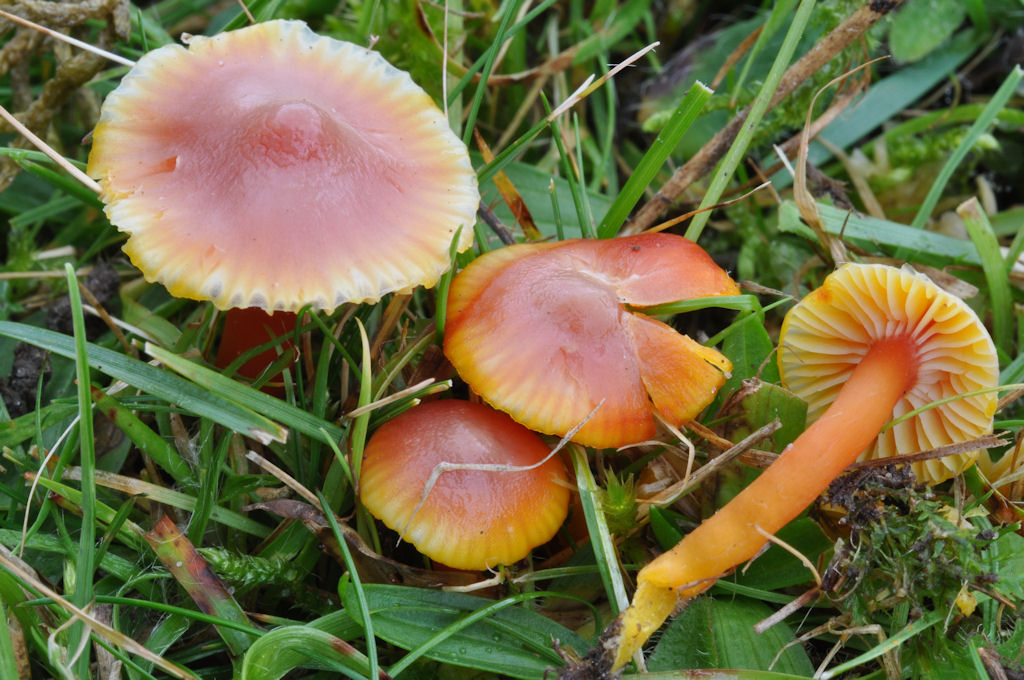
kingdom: Fungi
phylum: Basidiomycota
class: Agaricomycetes
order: Agaricales
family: Hygrophoraceae
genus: Hygrocybe
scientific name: Hygrocybe insipida
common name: liden vokshat
